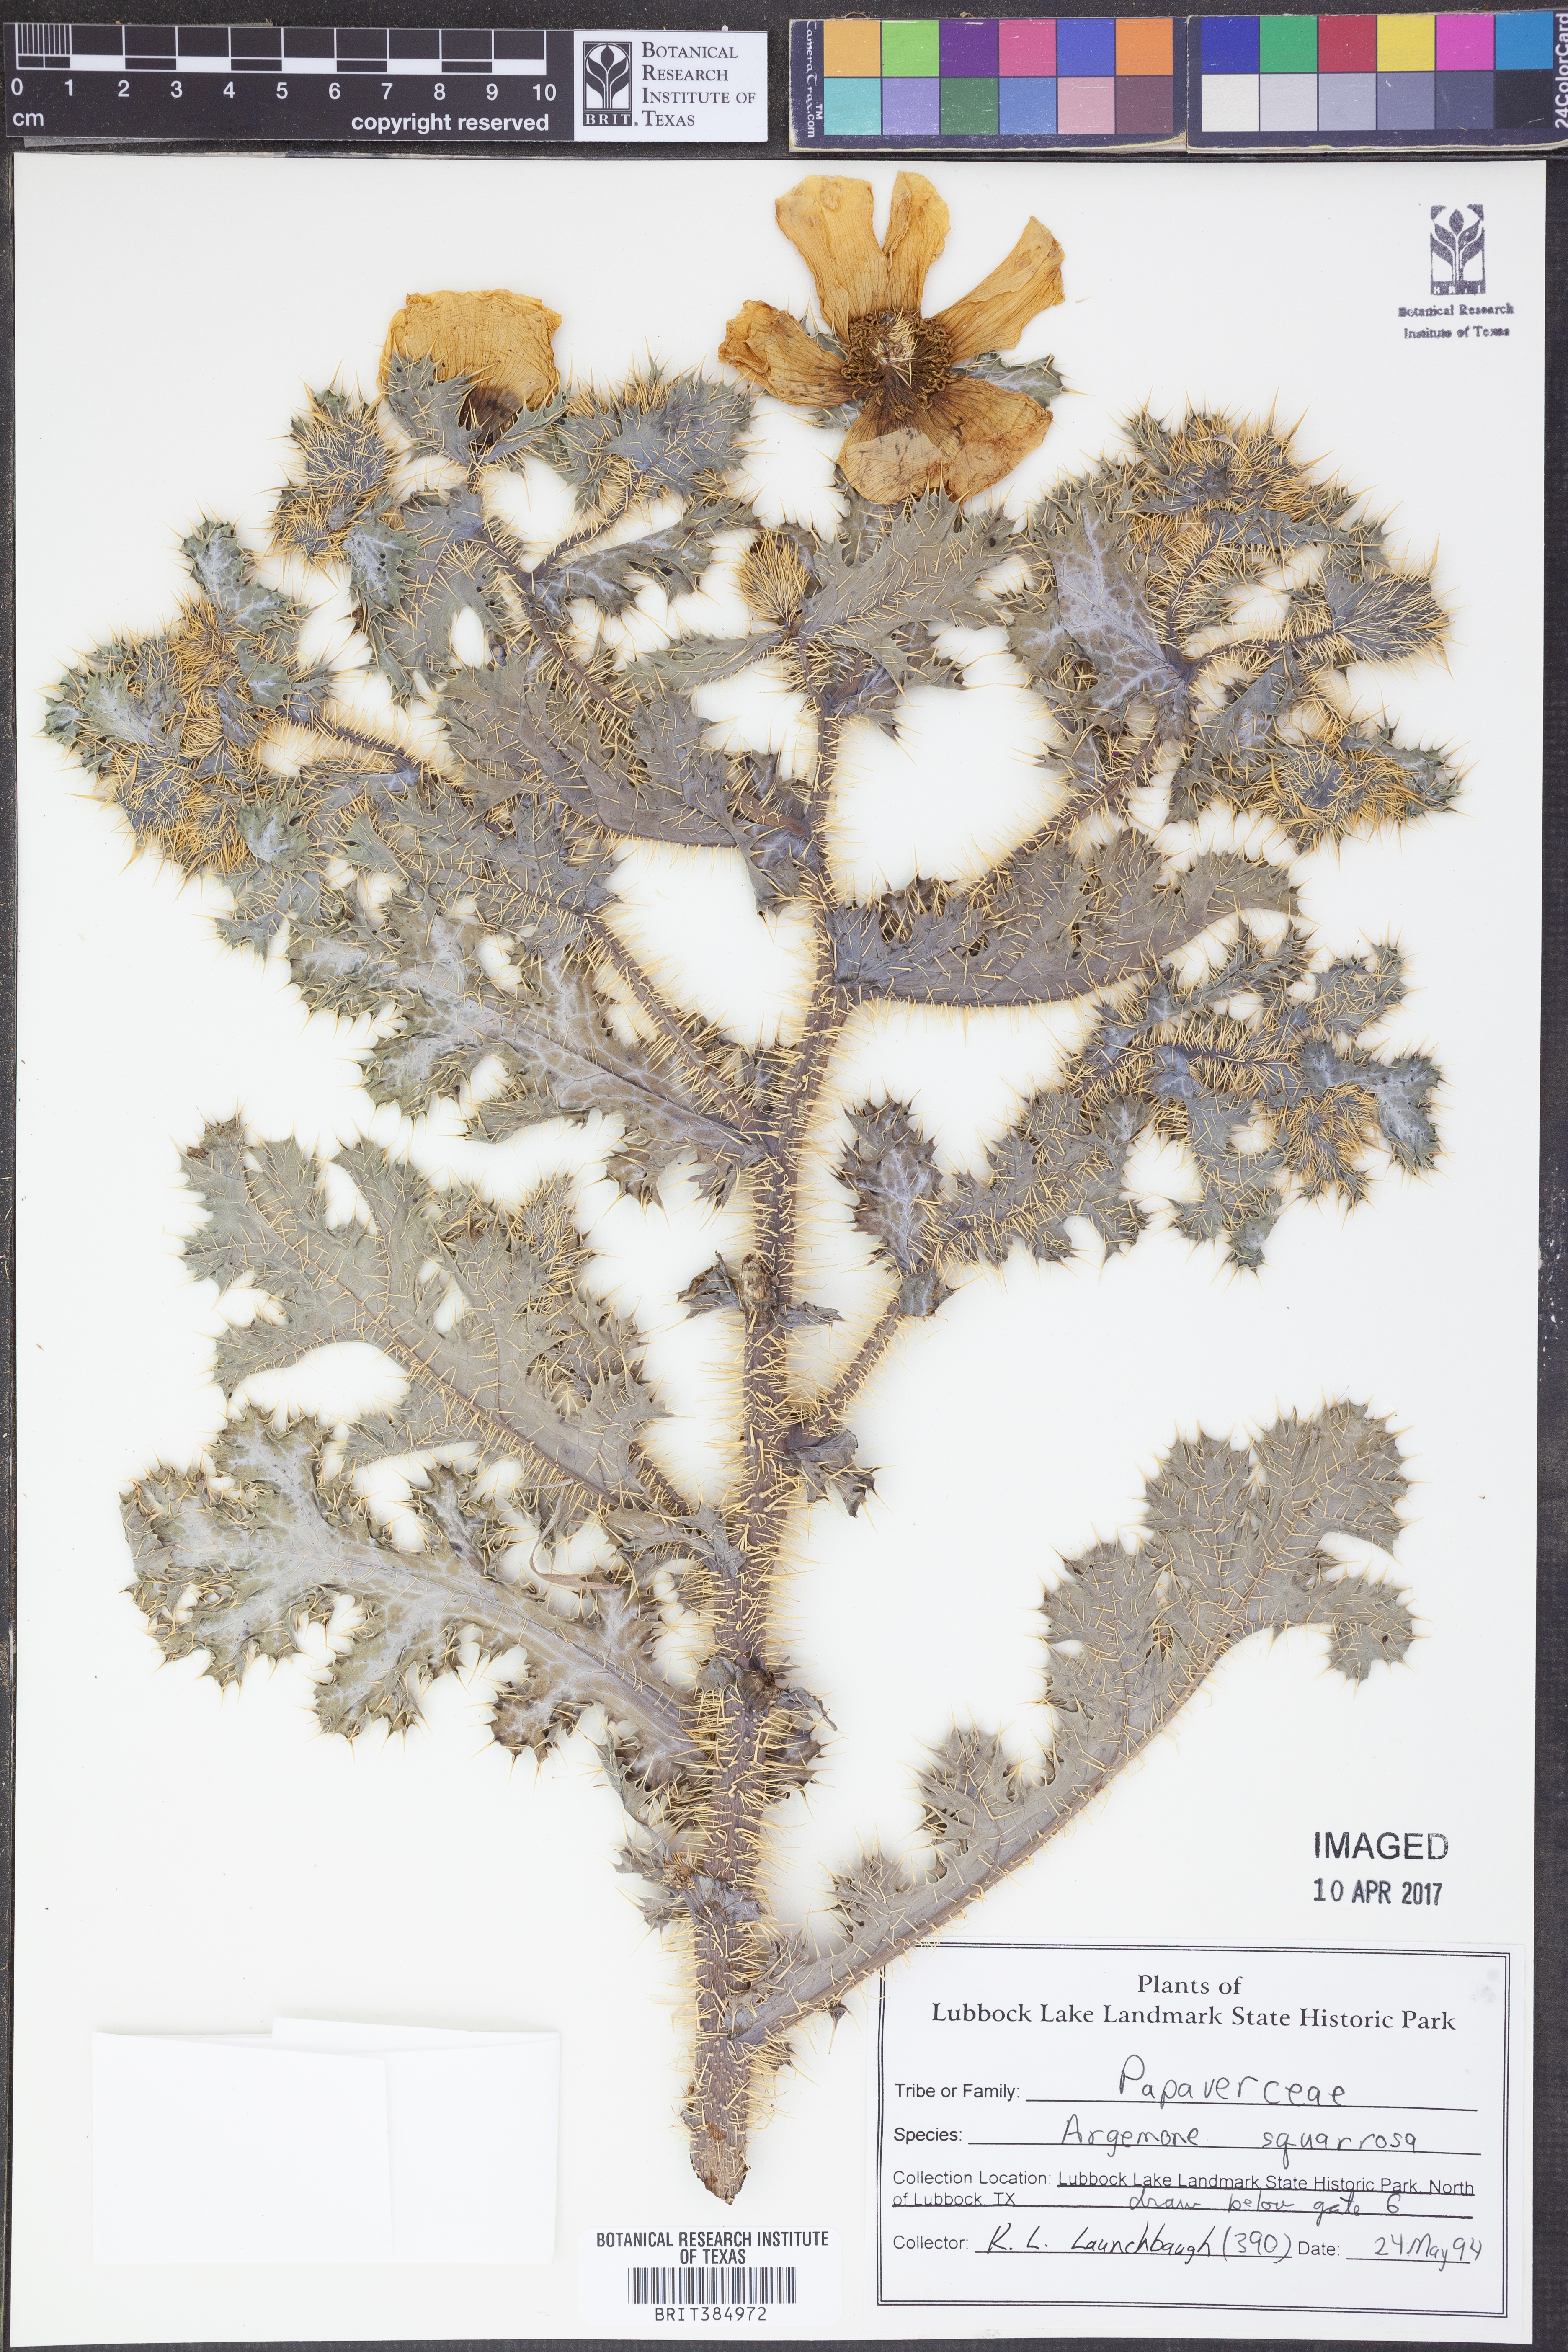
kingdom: Plantae
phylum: Tracheophyta
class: Magnoliopsida
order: Ranunculales
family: Papaveraceae
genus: Argemone
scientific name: Argemone squarrosa
